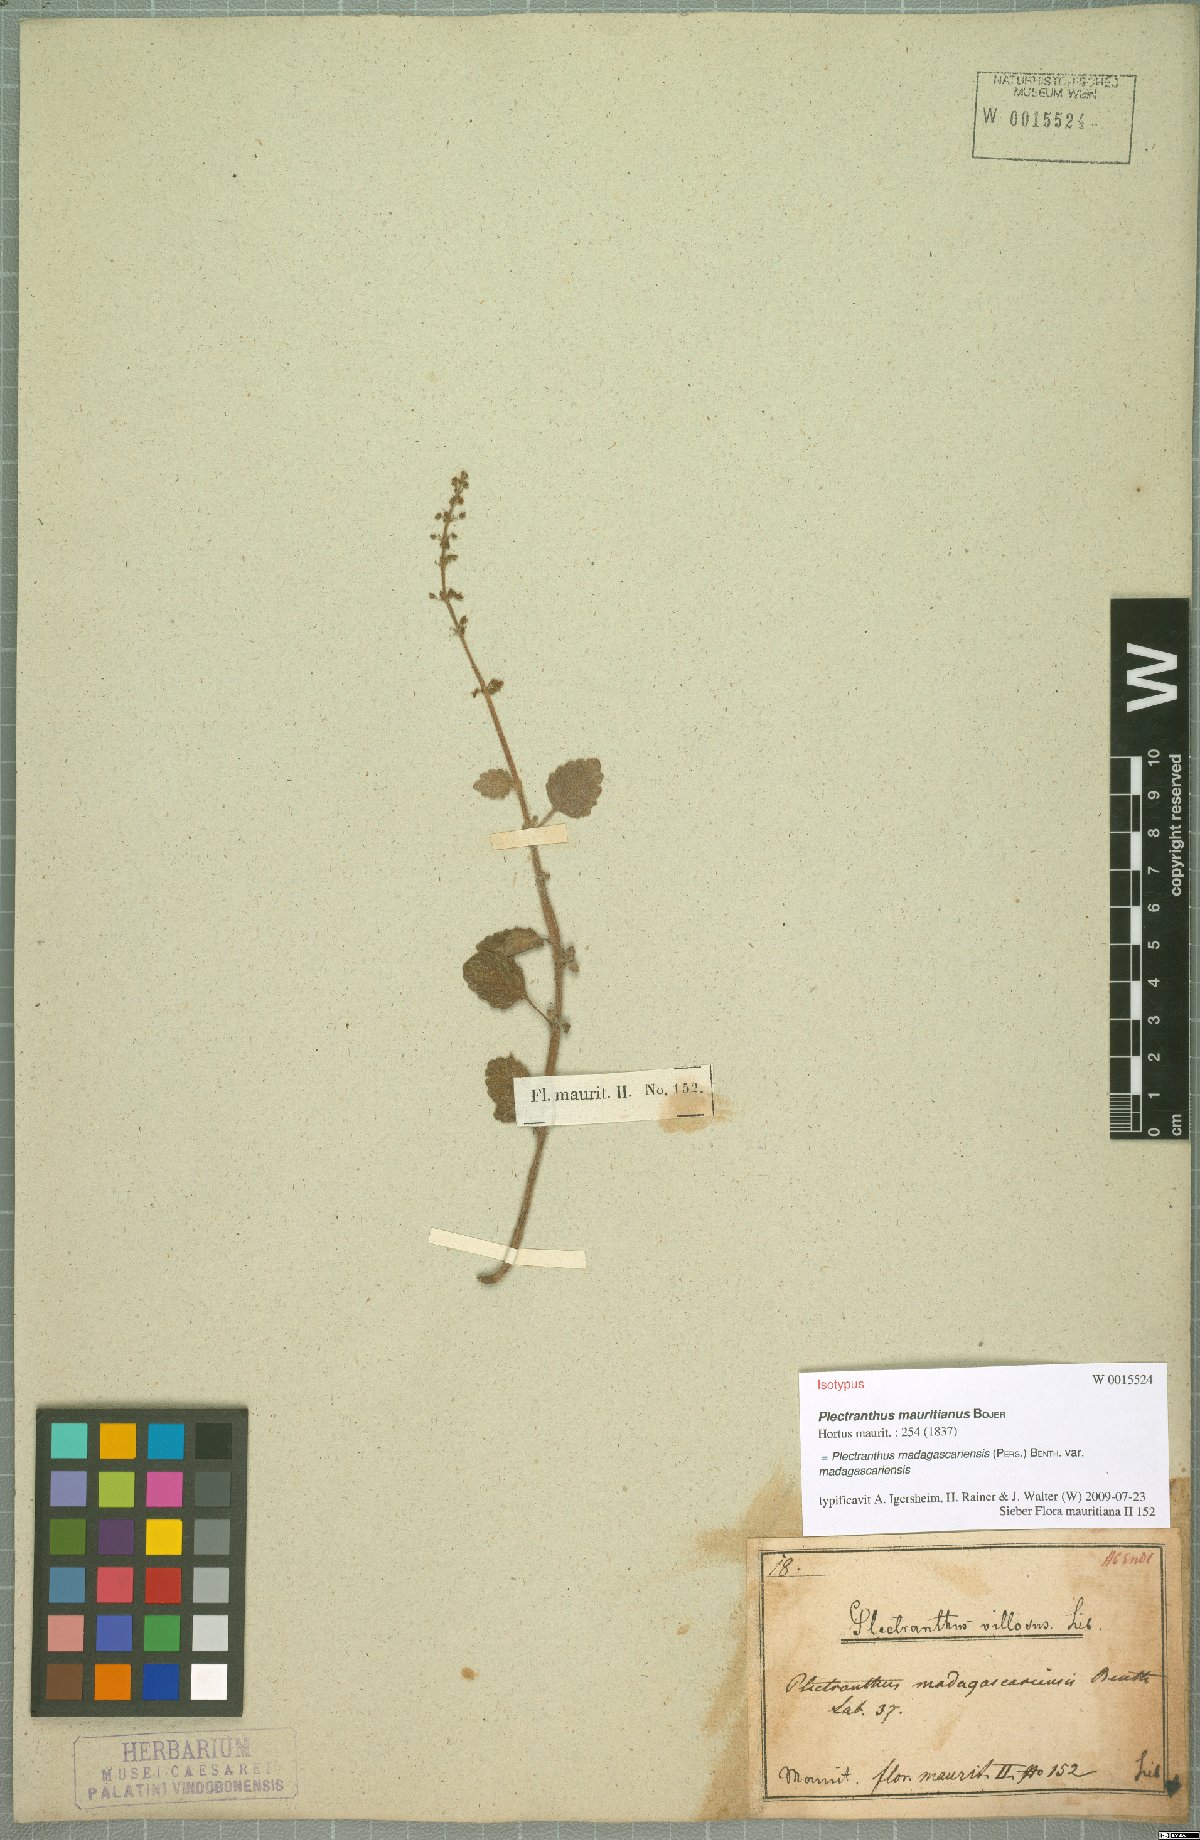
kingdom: Plantae
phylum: Tracheophyta
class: Magnoliopsida
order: Lamiales
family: Lamiaceae
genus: Coleus
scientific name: Coleus madagascariensis
